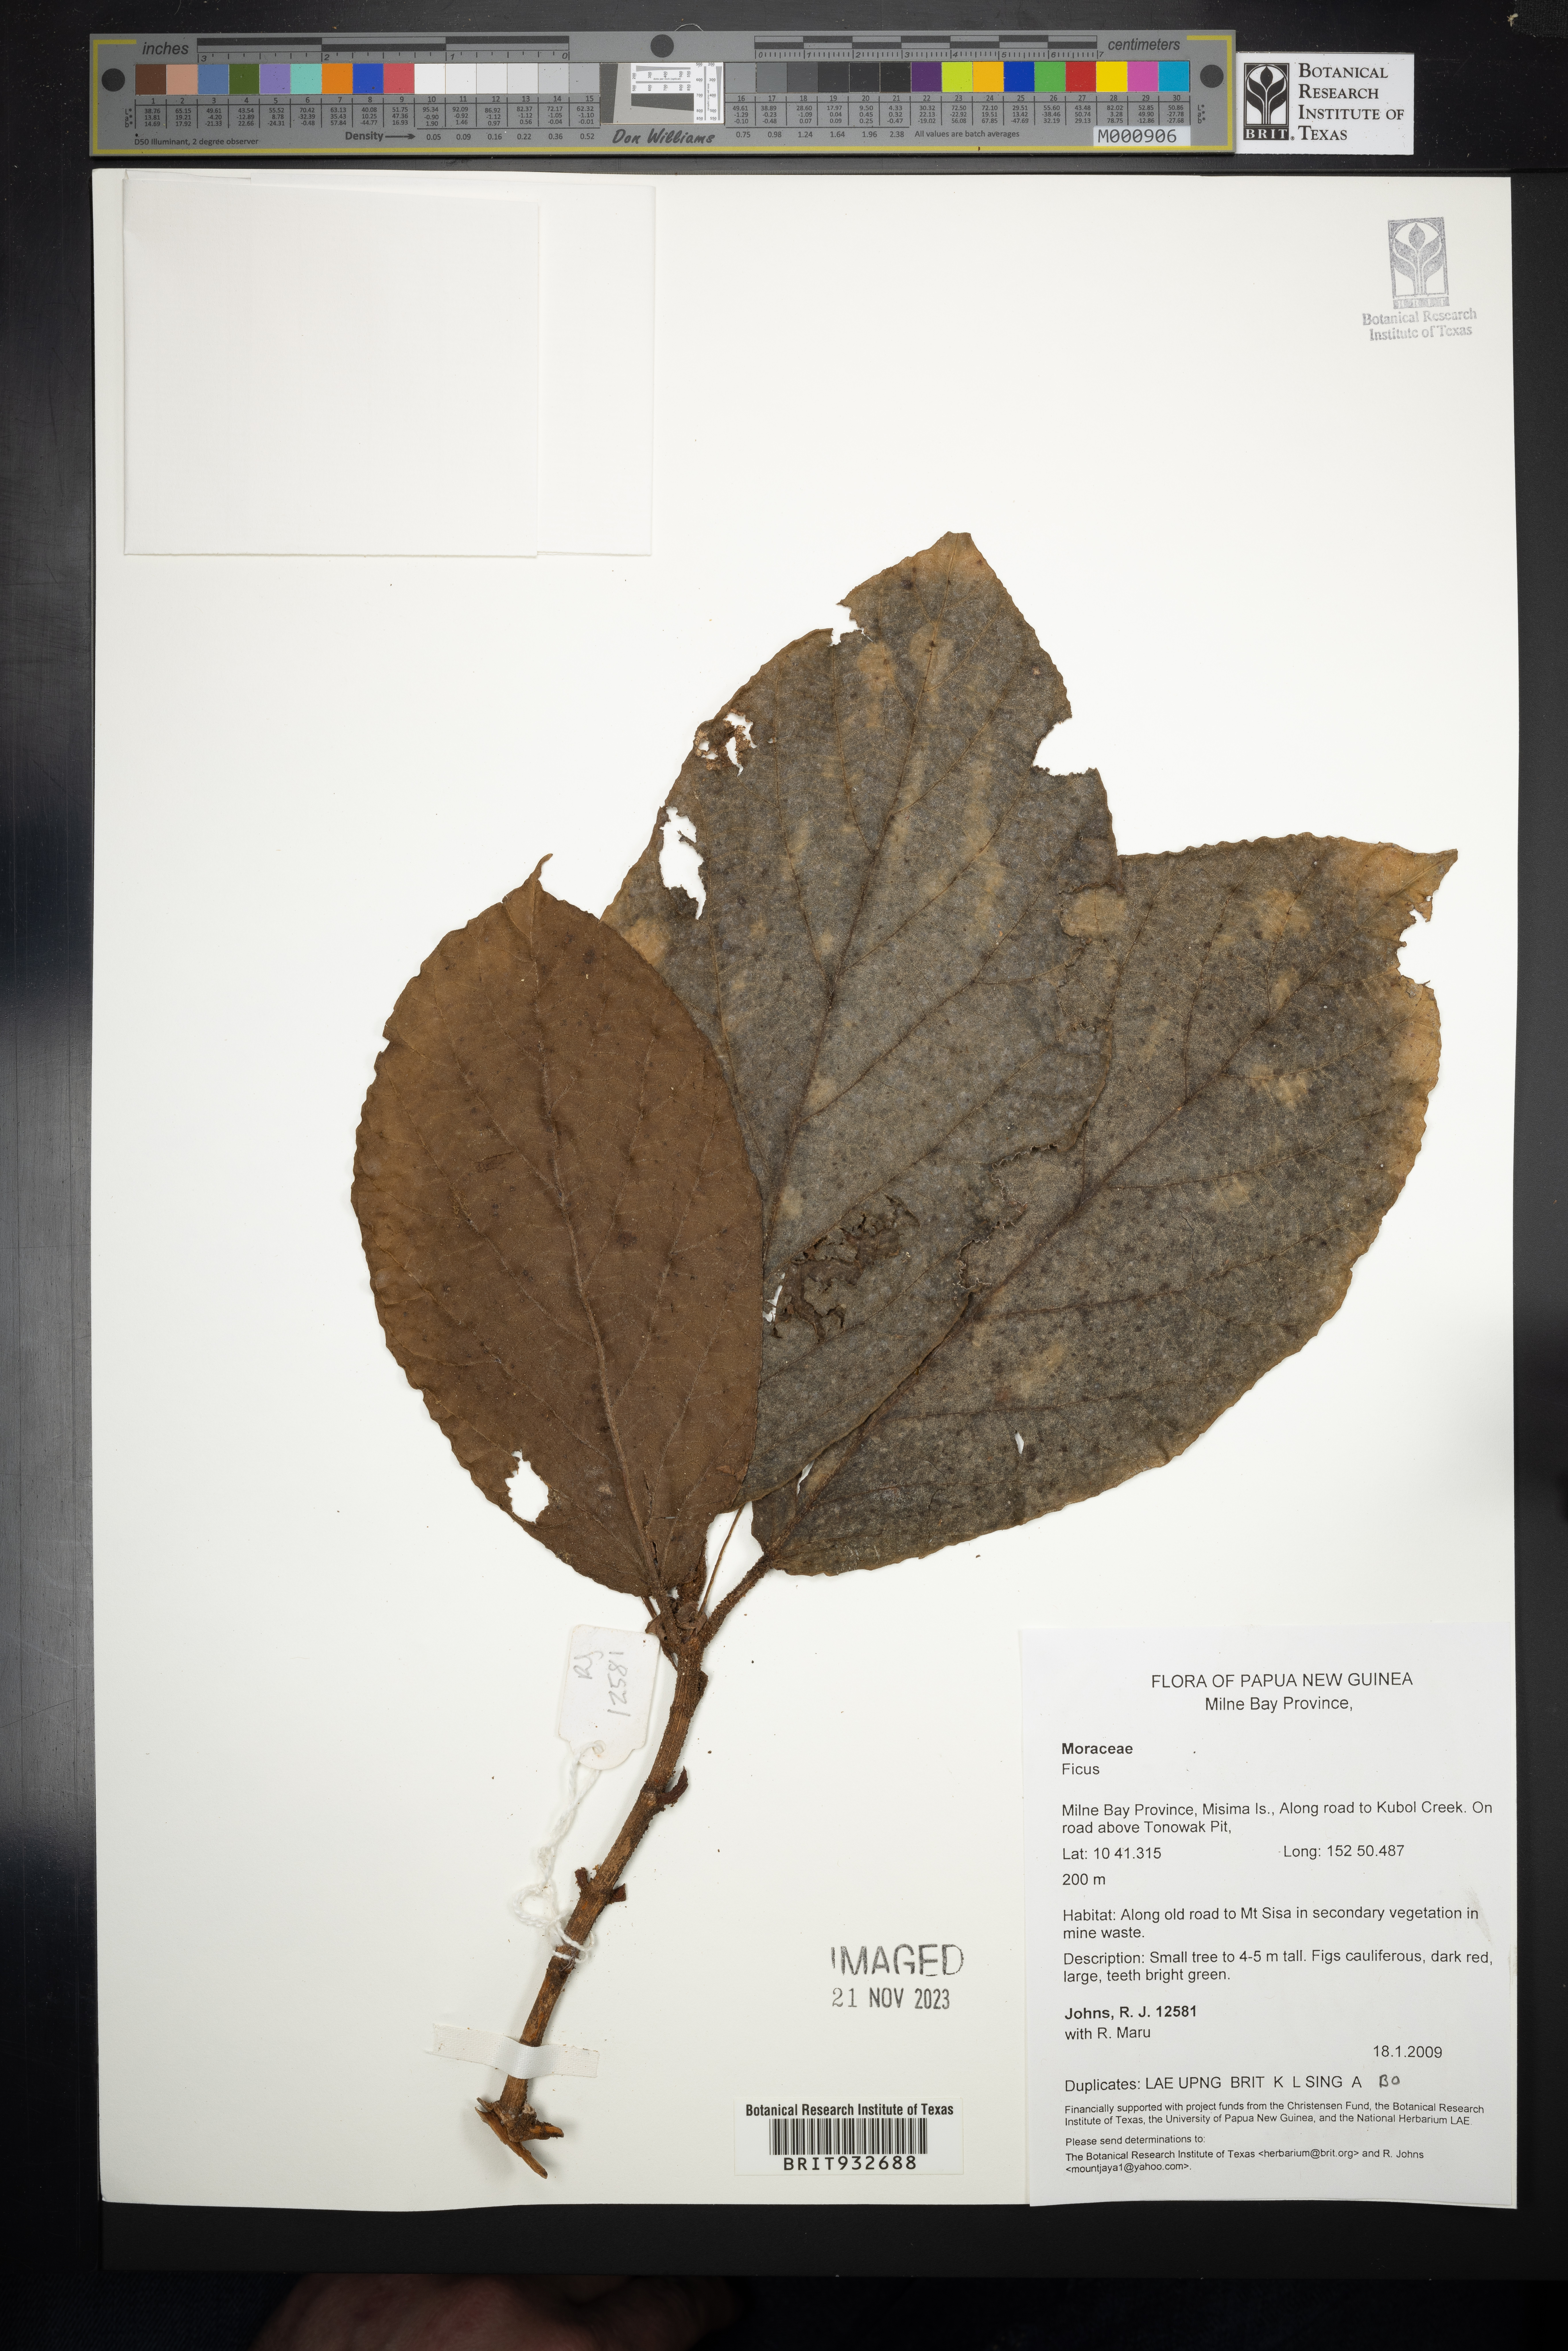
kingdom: Plantae
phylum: Tracheophyta
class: Magnoliopsida
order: Rosales
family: Moraceae
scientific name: Moraceae
